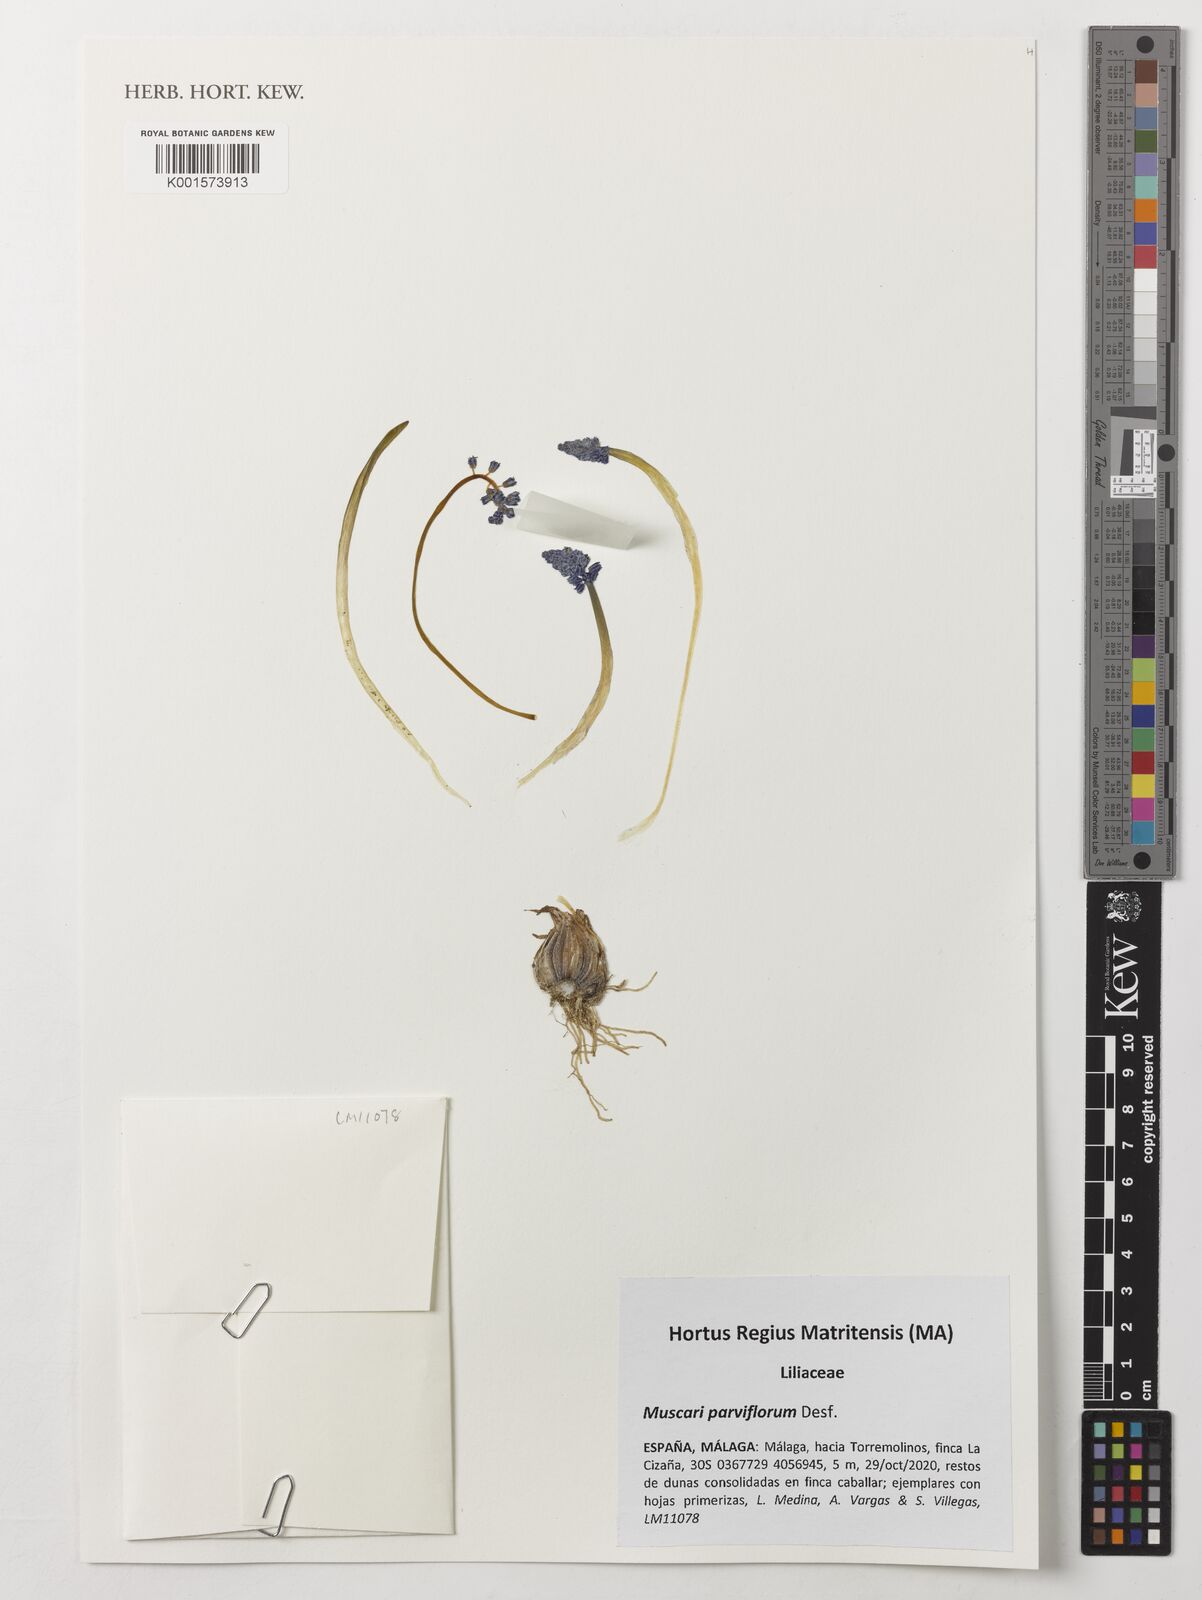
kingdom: Plantae
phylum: Tracheophyta
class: Liliopsida
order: Asparagales
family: Asparagaceae
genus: Muscari
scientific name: Muscari parviflorum
